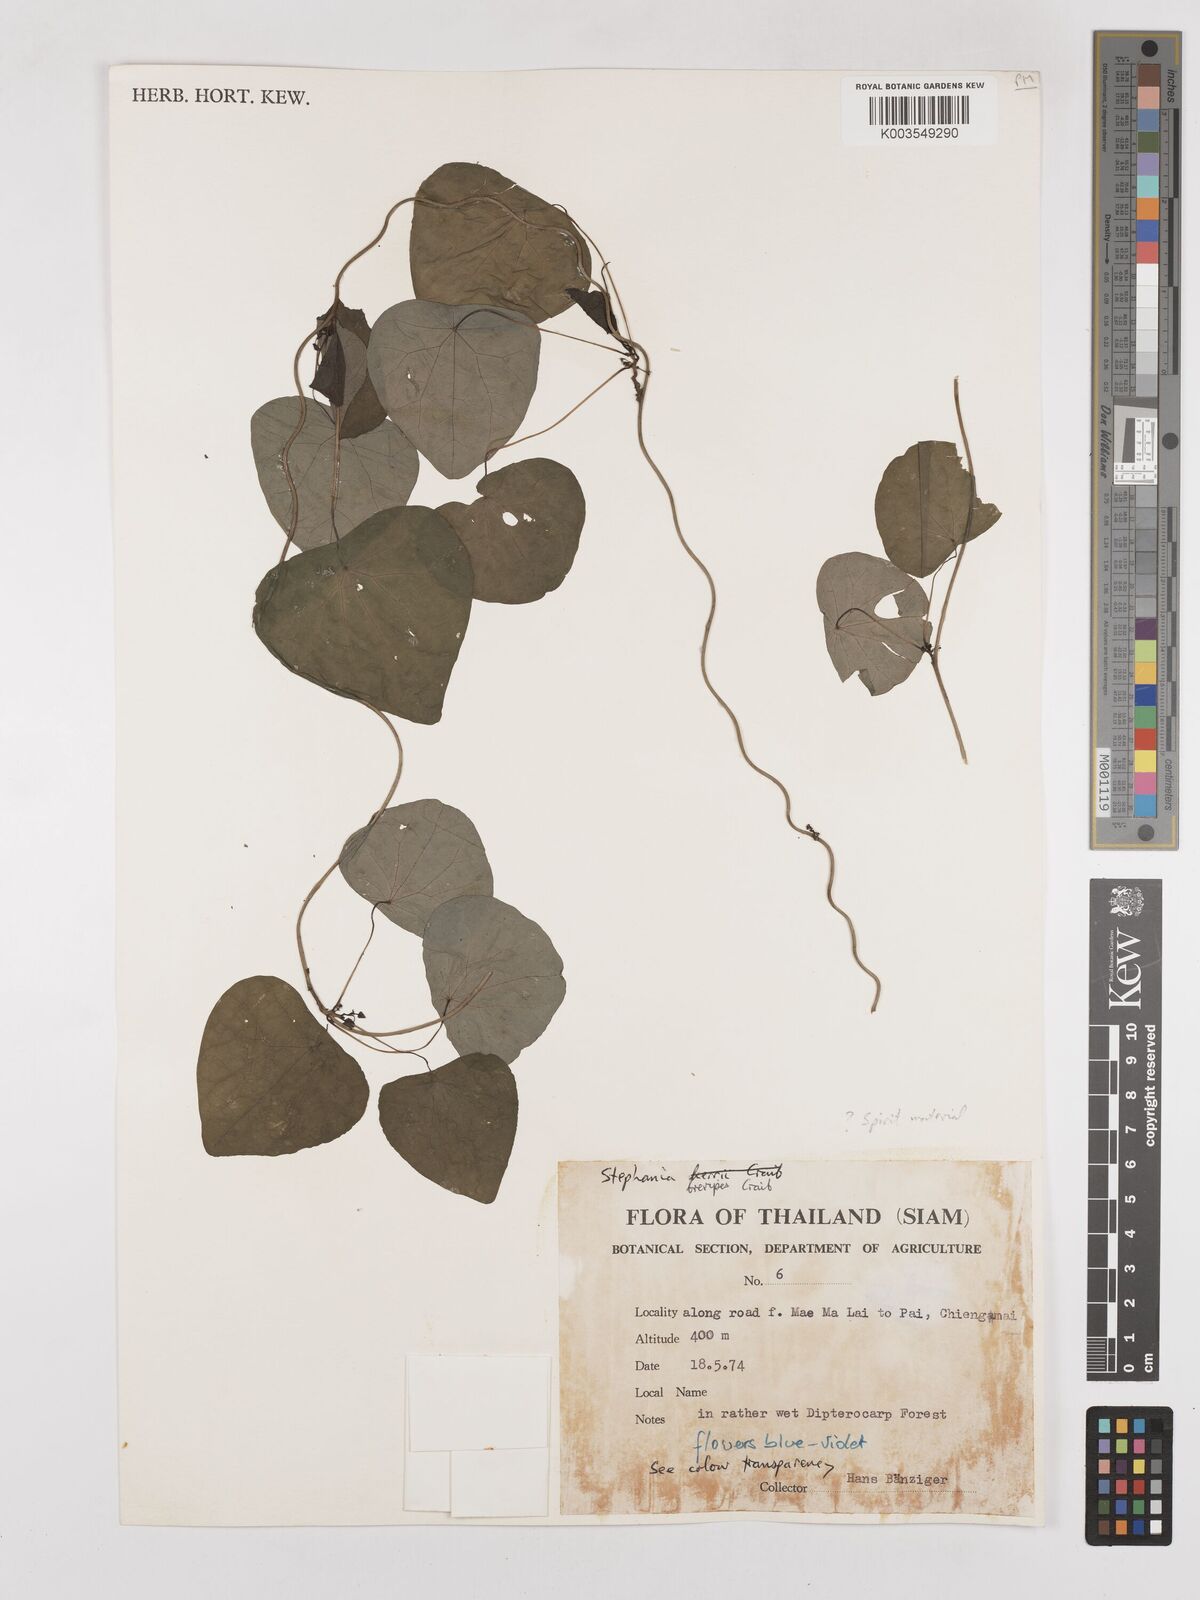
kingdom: Plantae
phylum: Tracheophyta
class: Magnoliopsida
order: Ranunculales
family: Menispermaceae
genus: Stephania
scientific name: Stephania brevipes
